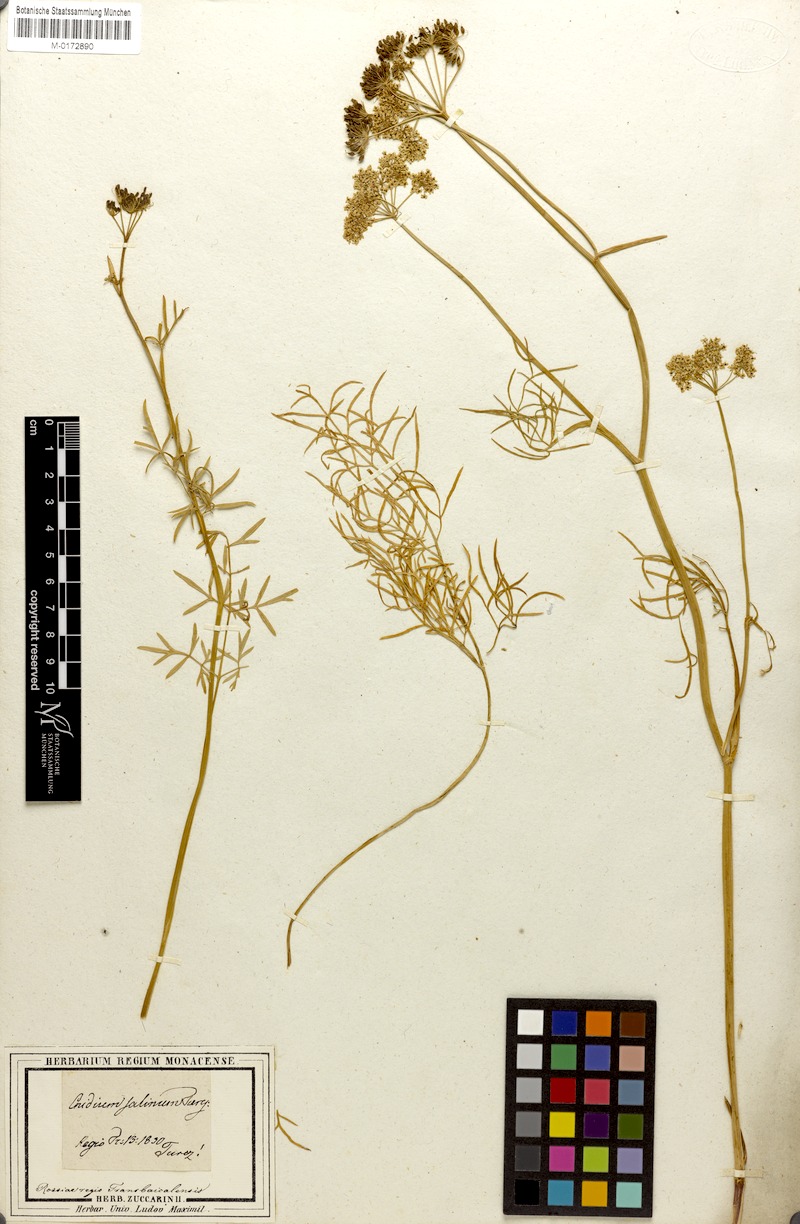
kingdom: Plantae
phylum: Tracheophyta
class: Magnoliopsida
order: Apiales
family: Apiaceae
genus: Kadenia
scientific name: Kadenia salina
